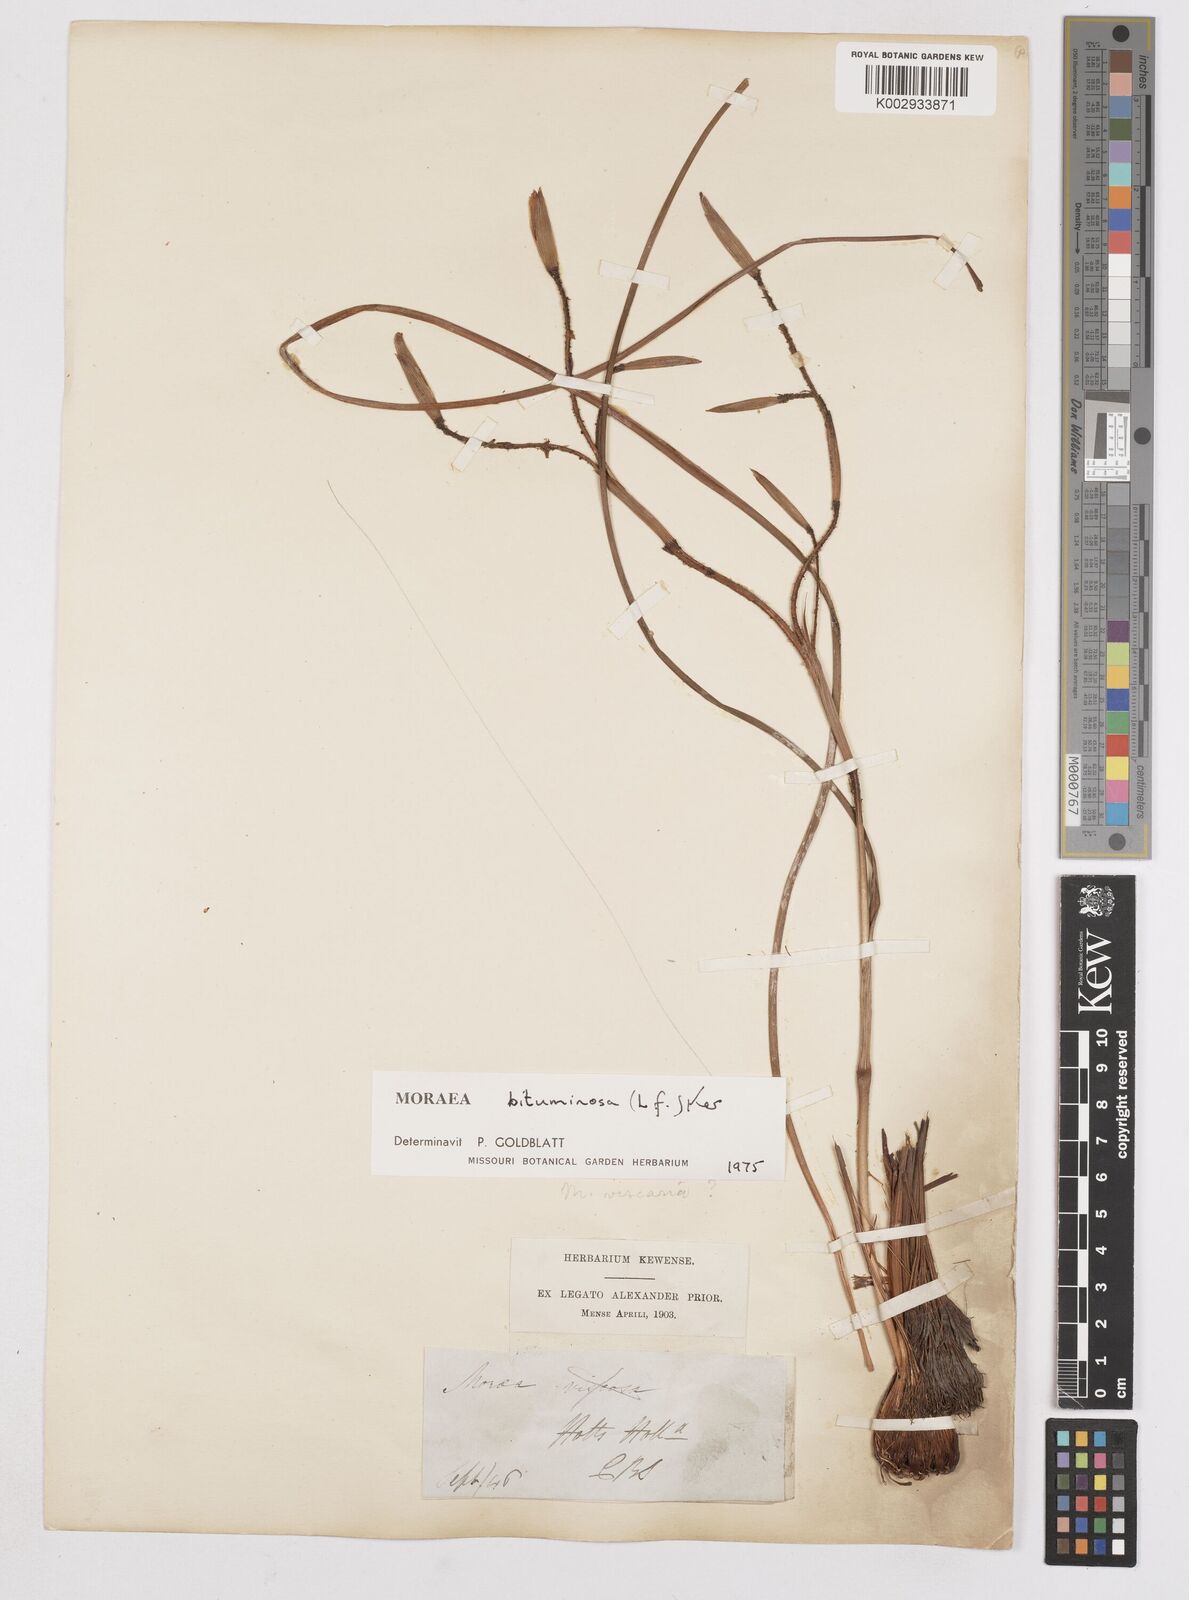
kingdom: Plantae
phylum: Tracheophyta
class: Liliopsida
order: Asparagales
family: Iridaceae
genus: Moraea
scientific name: Moraea bituminosa
